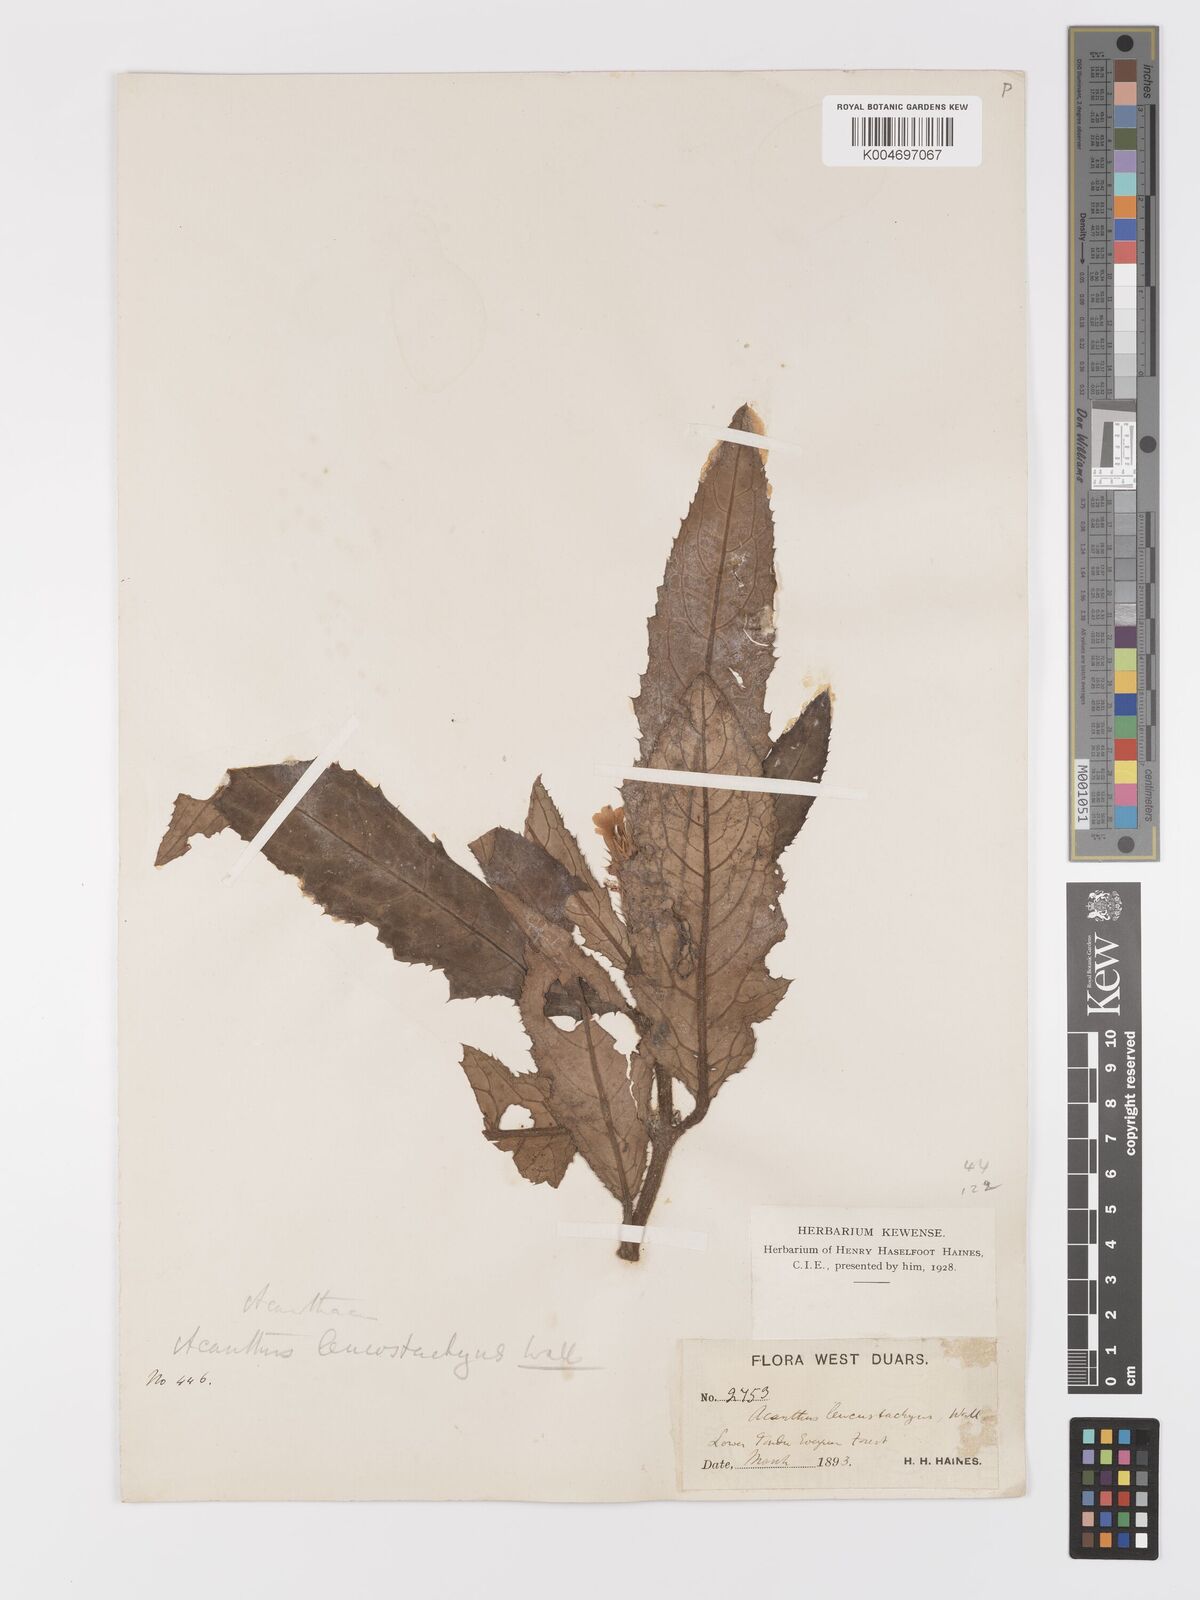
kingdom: Plantae
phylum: Tracheophyta
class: Magnoliopsida
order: Lamiales
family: Acanthaceae
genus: Acanthus
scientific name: Acanthus leucostachyus
